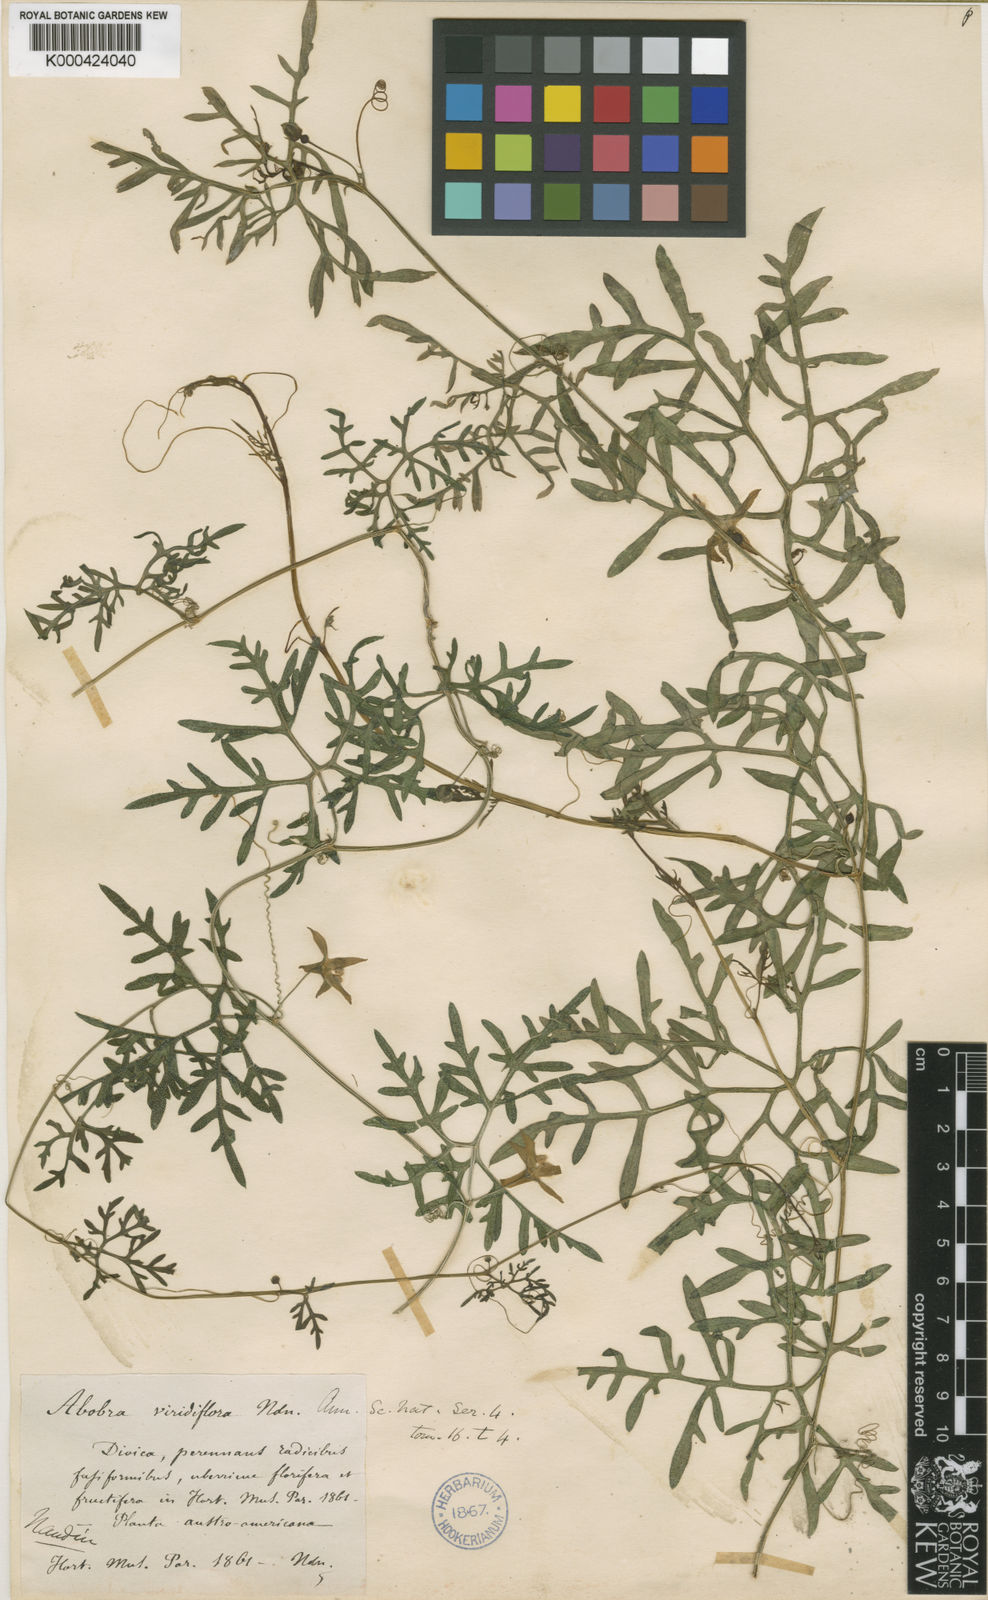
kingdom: Plantae
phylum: Tracheophyta
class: Magnoliopsida
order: Cucurbitales
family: Cucurbitaceae
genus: Abobra
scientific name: Abobra tenuifolia
